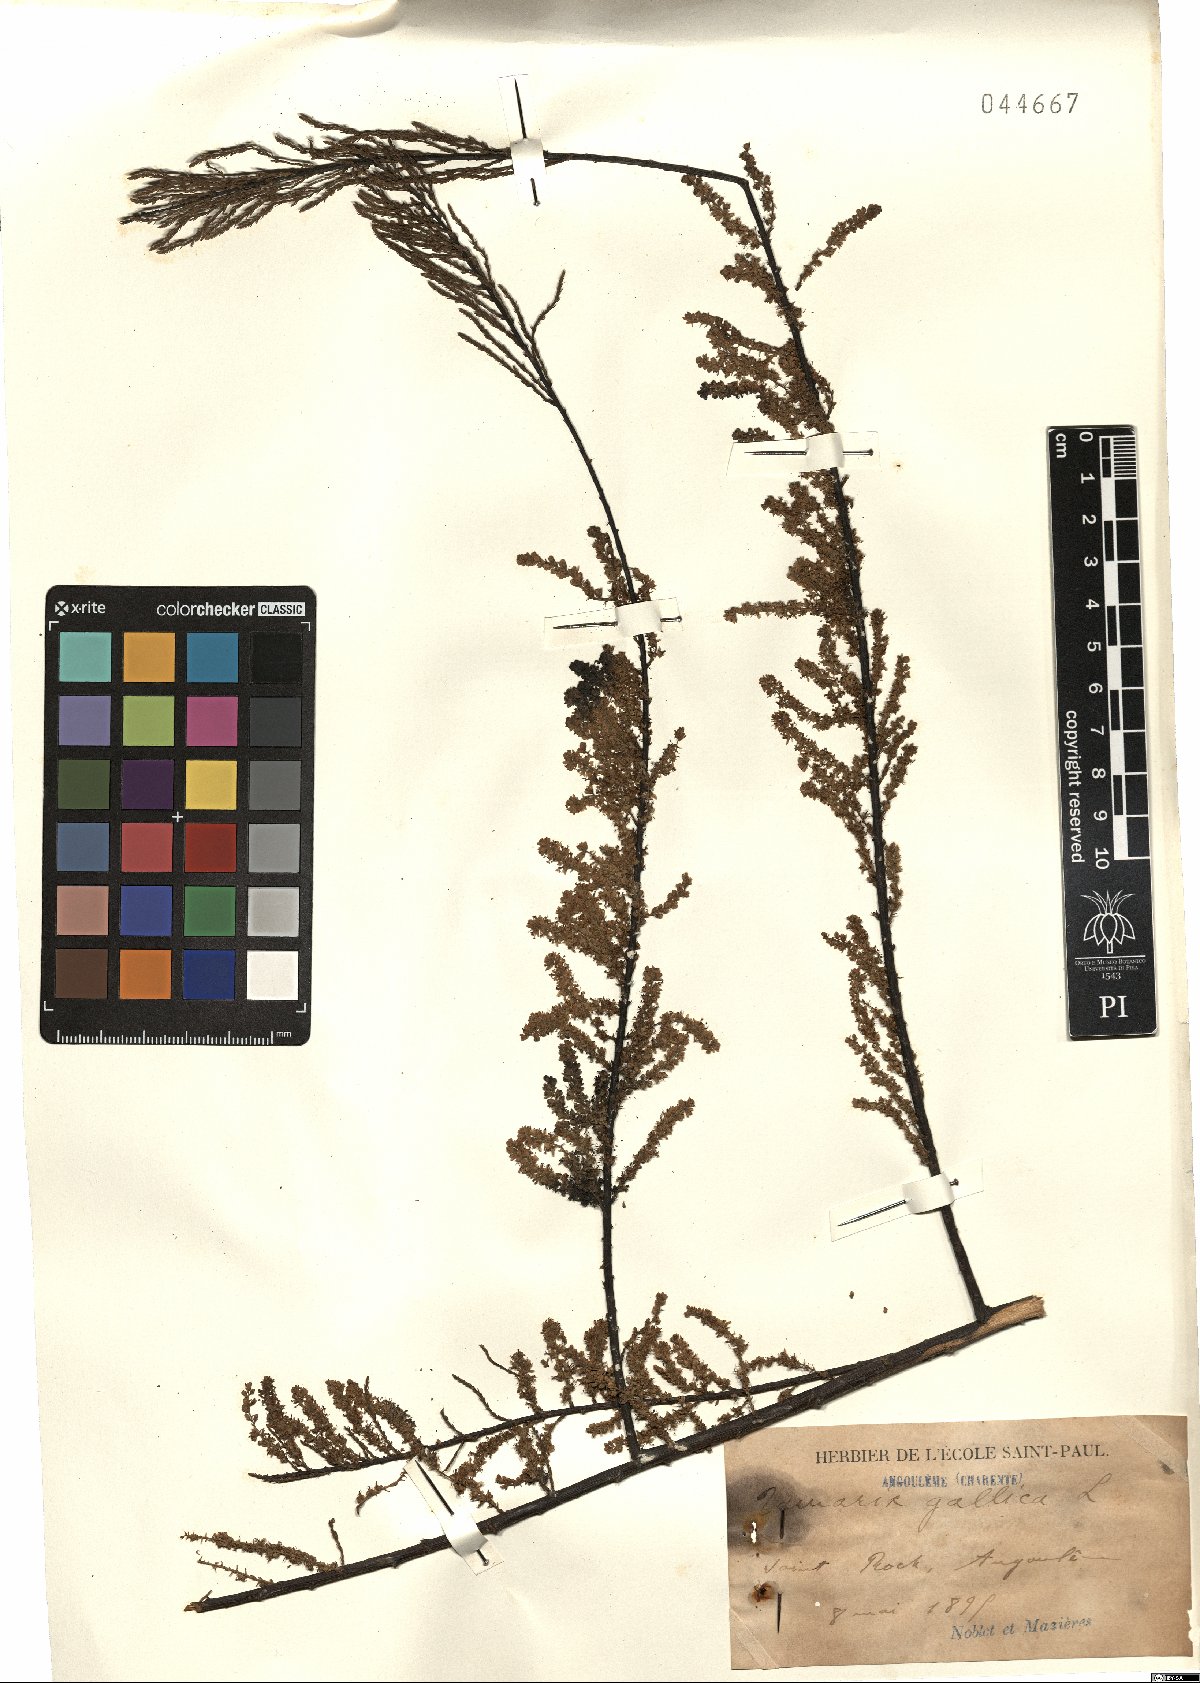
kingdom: Plantae
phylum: Tracheophyta
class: Magnoliopsida
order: Caryophyllales
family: Tamaricaceae
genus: Tamarix
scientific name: Tamarix gallica
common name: Tamarisk
